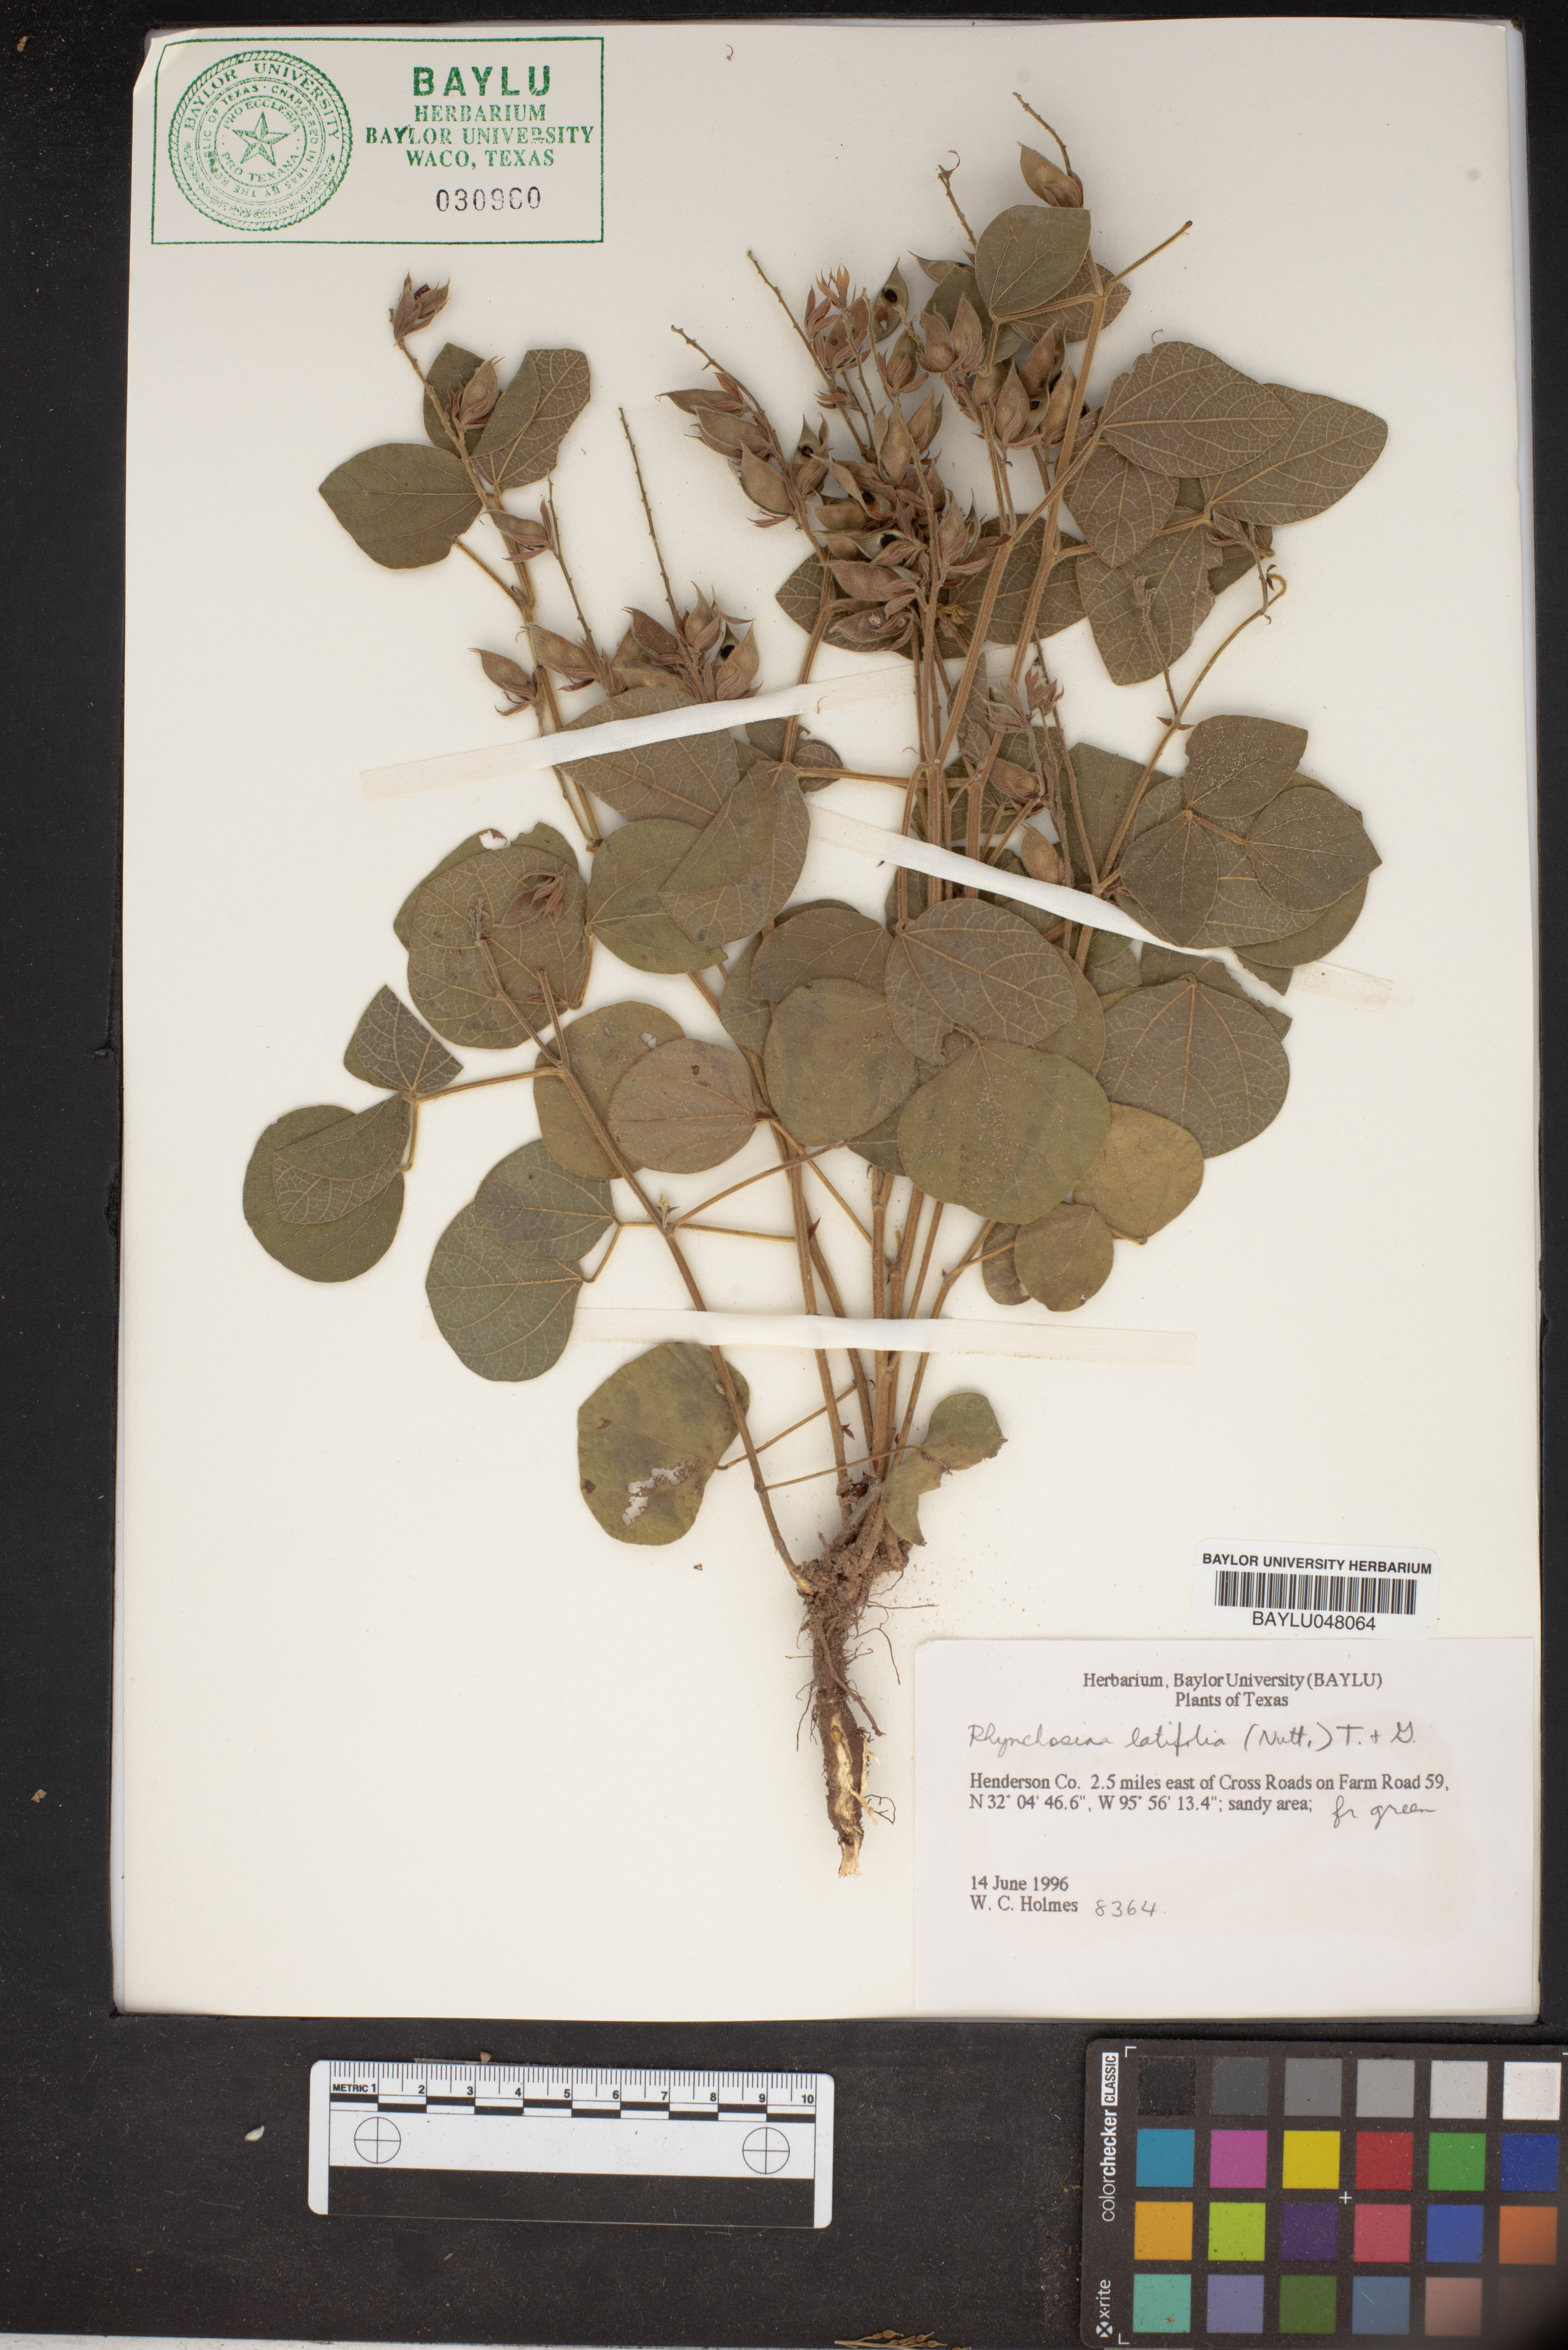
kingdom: Plantae
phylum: Tracheophyta
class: Magnoliopsida
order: Fabales
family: Fabaceae
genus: Rhynchosia
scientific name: Rhynchosia latifolia
